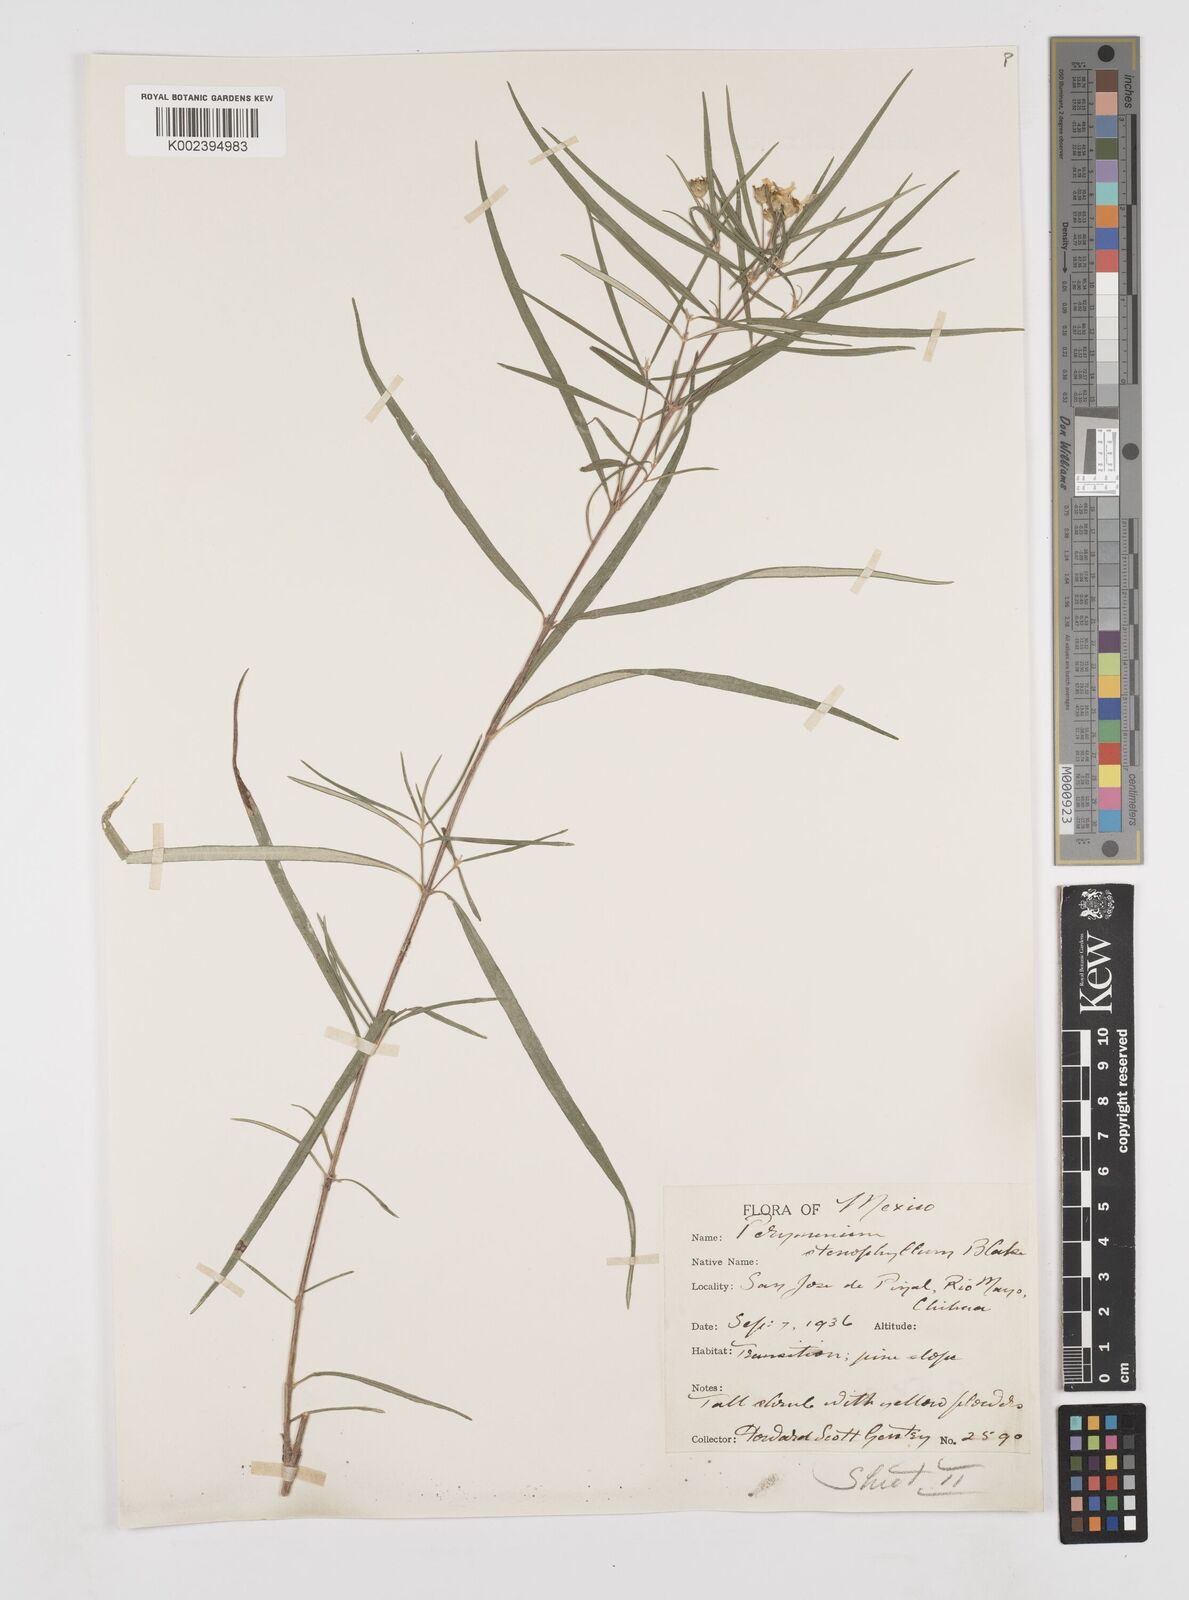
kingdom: Plantae
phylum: Tracheophyta
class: Magnoliopsida
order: Asterales
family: Asteraceae
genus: Perymenium
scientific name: Perymenium stenophyllum
